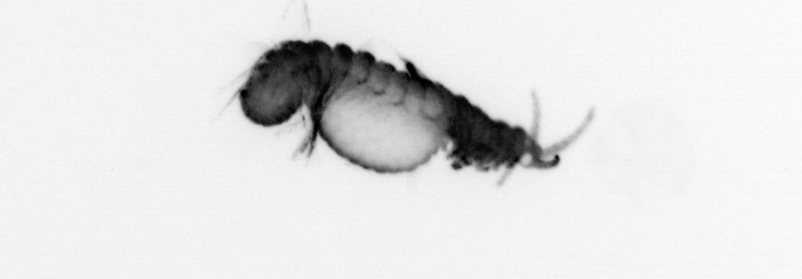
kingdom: Animalia
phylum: Annelida
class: Polychaeta
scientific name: Polychaeta
